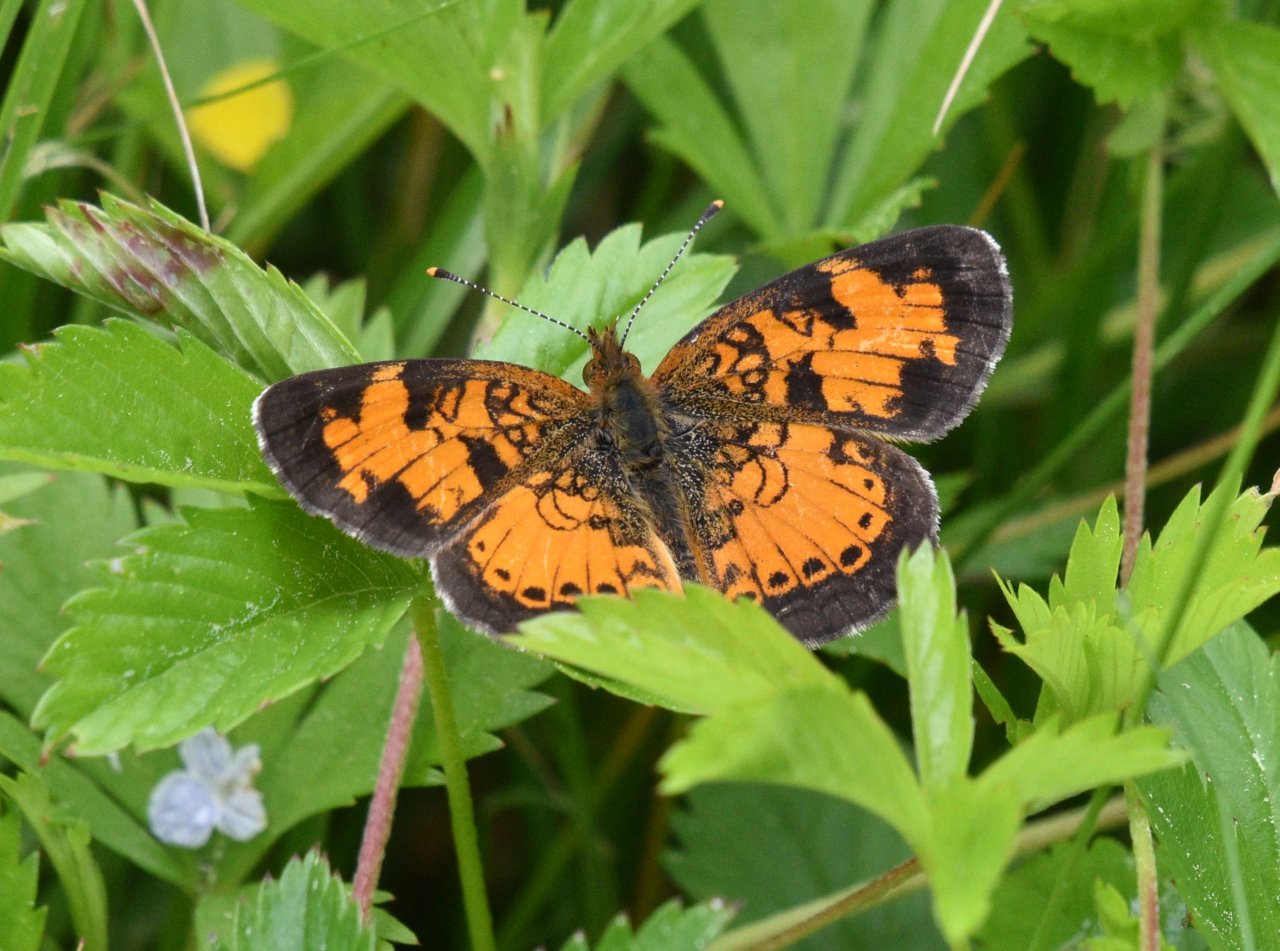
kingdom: Animalia
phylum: Arthropoda
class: Insecta
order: Lepidoptera
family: Nymphalidae
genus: Phyciodes
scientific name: Phyciodes tharos
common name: Northern Crescent
